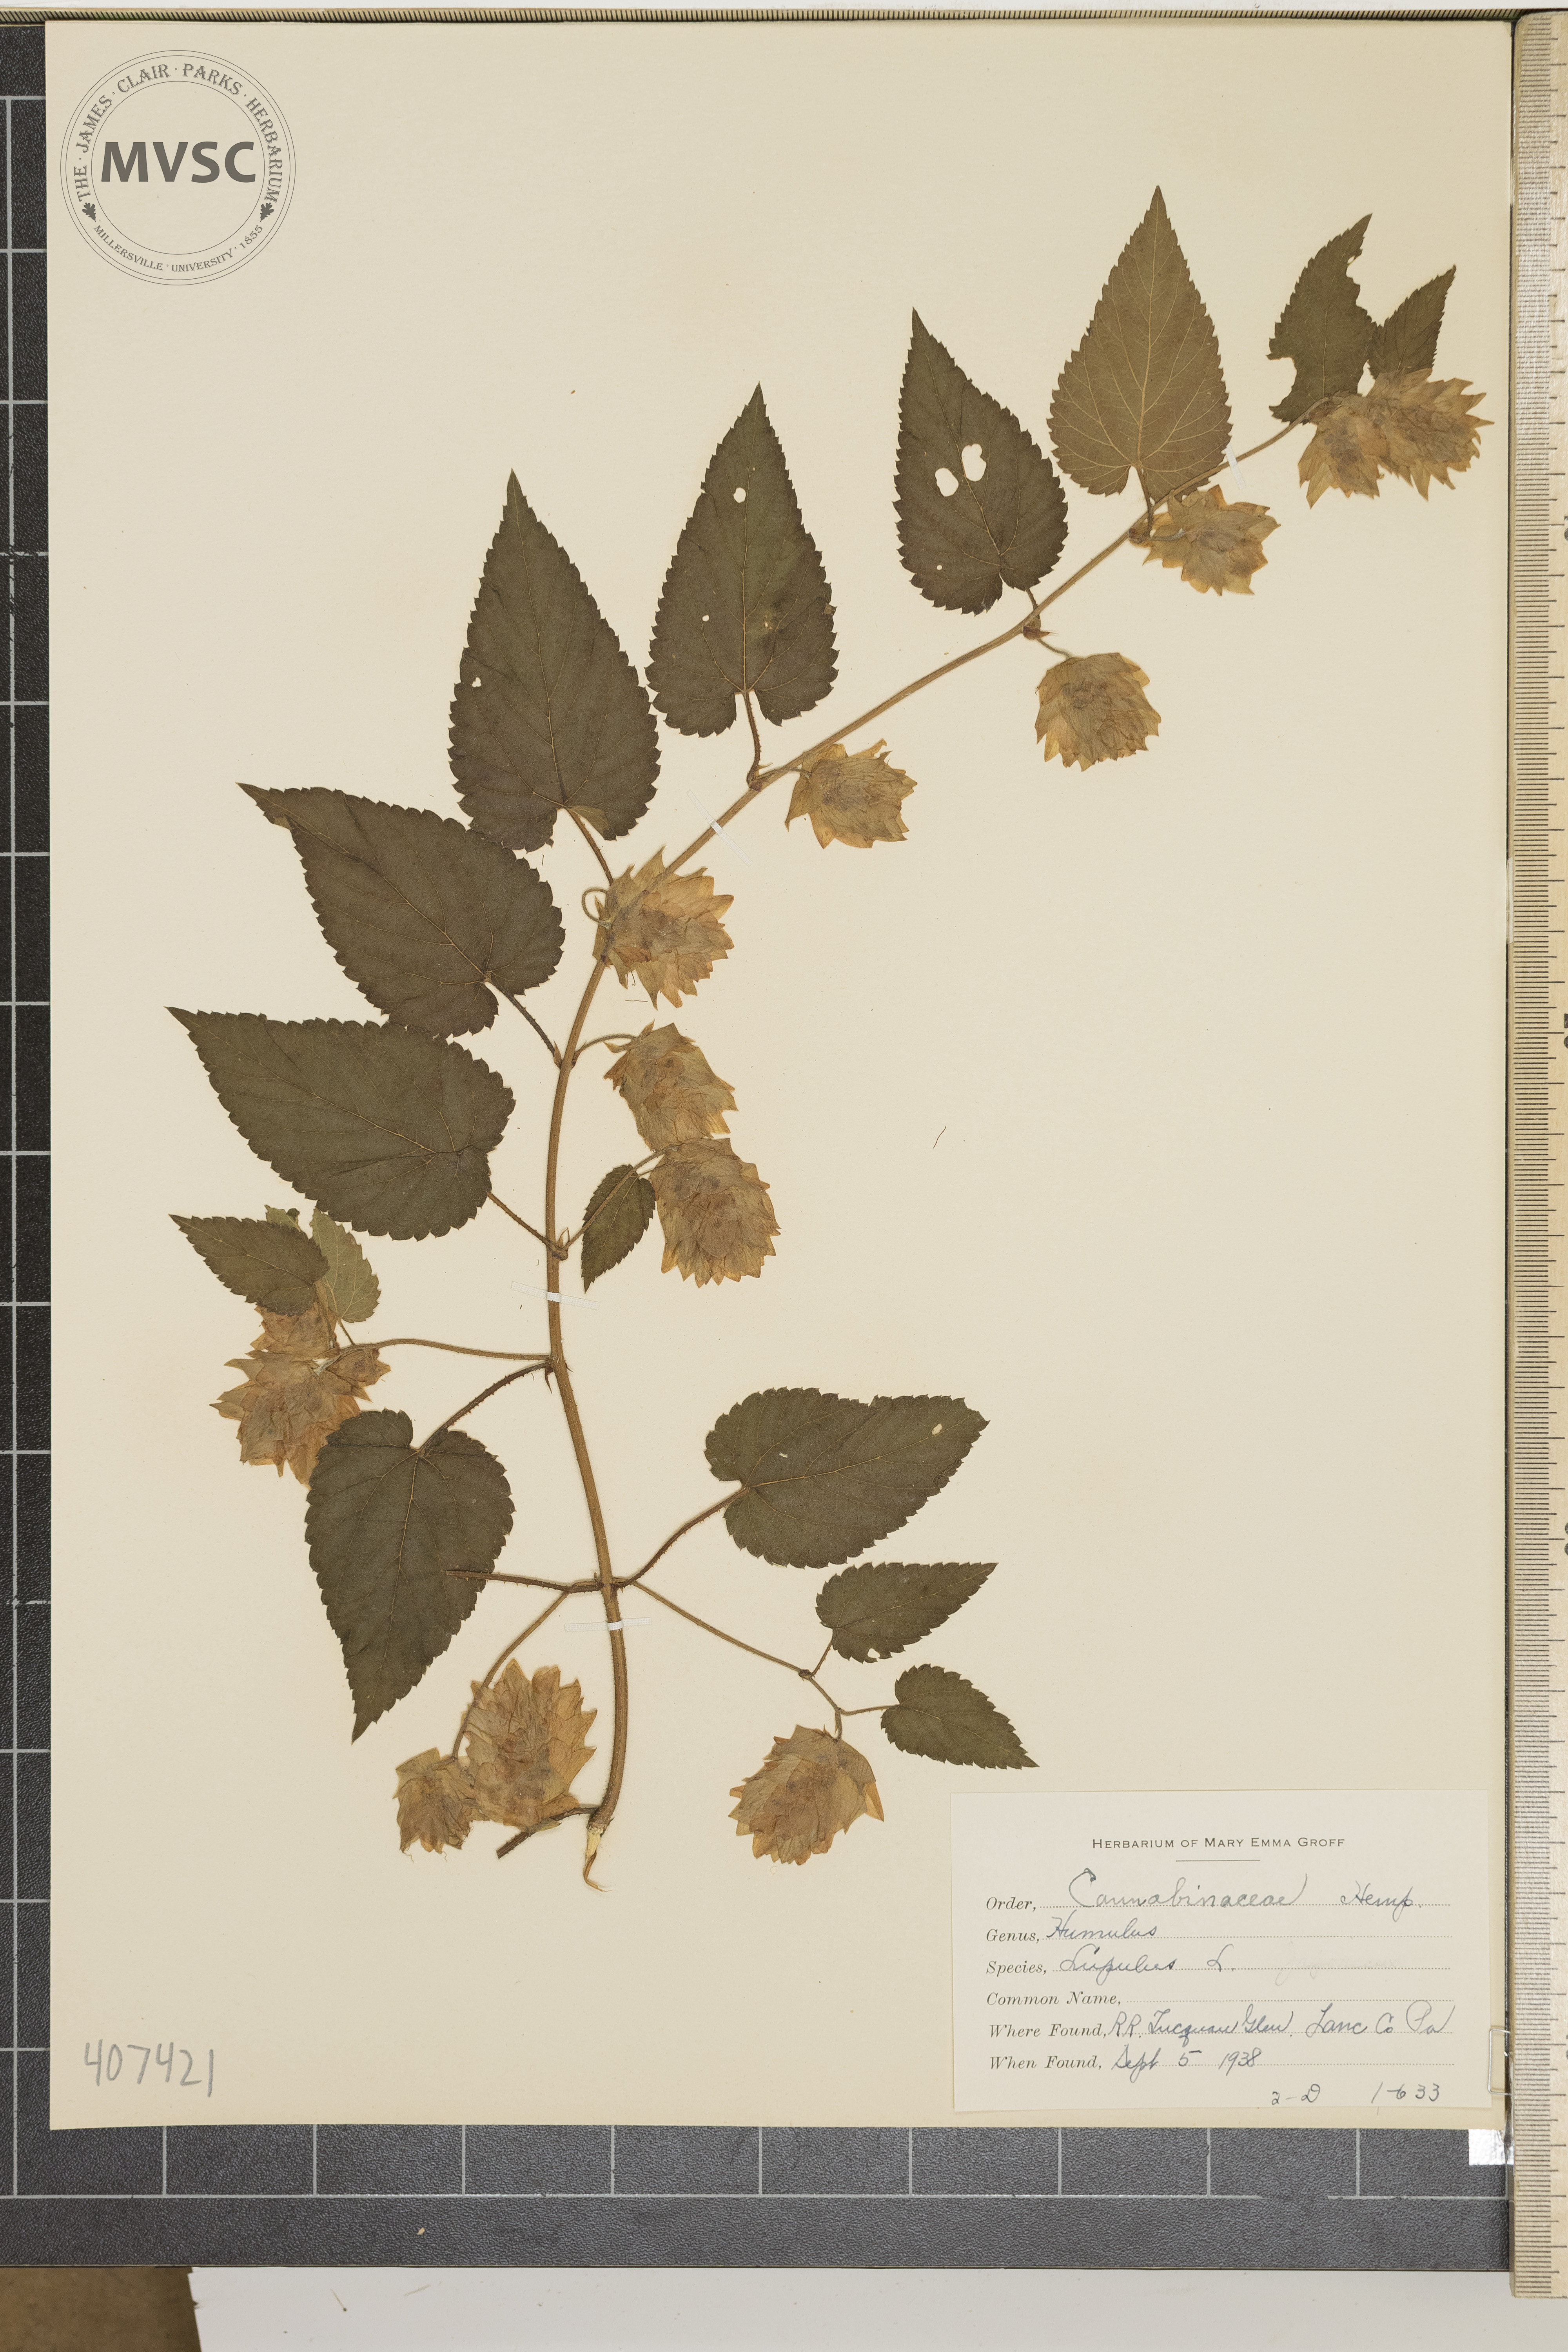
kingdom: Plantae
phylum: Tracheophyta
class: Magnoliopsida
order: Rosales
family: Cannabaceae
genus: Humulus
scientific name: Humulus lupulus
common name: hops
